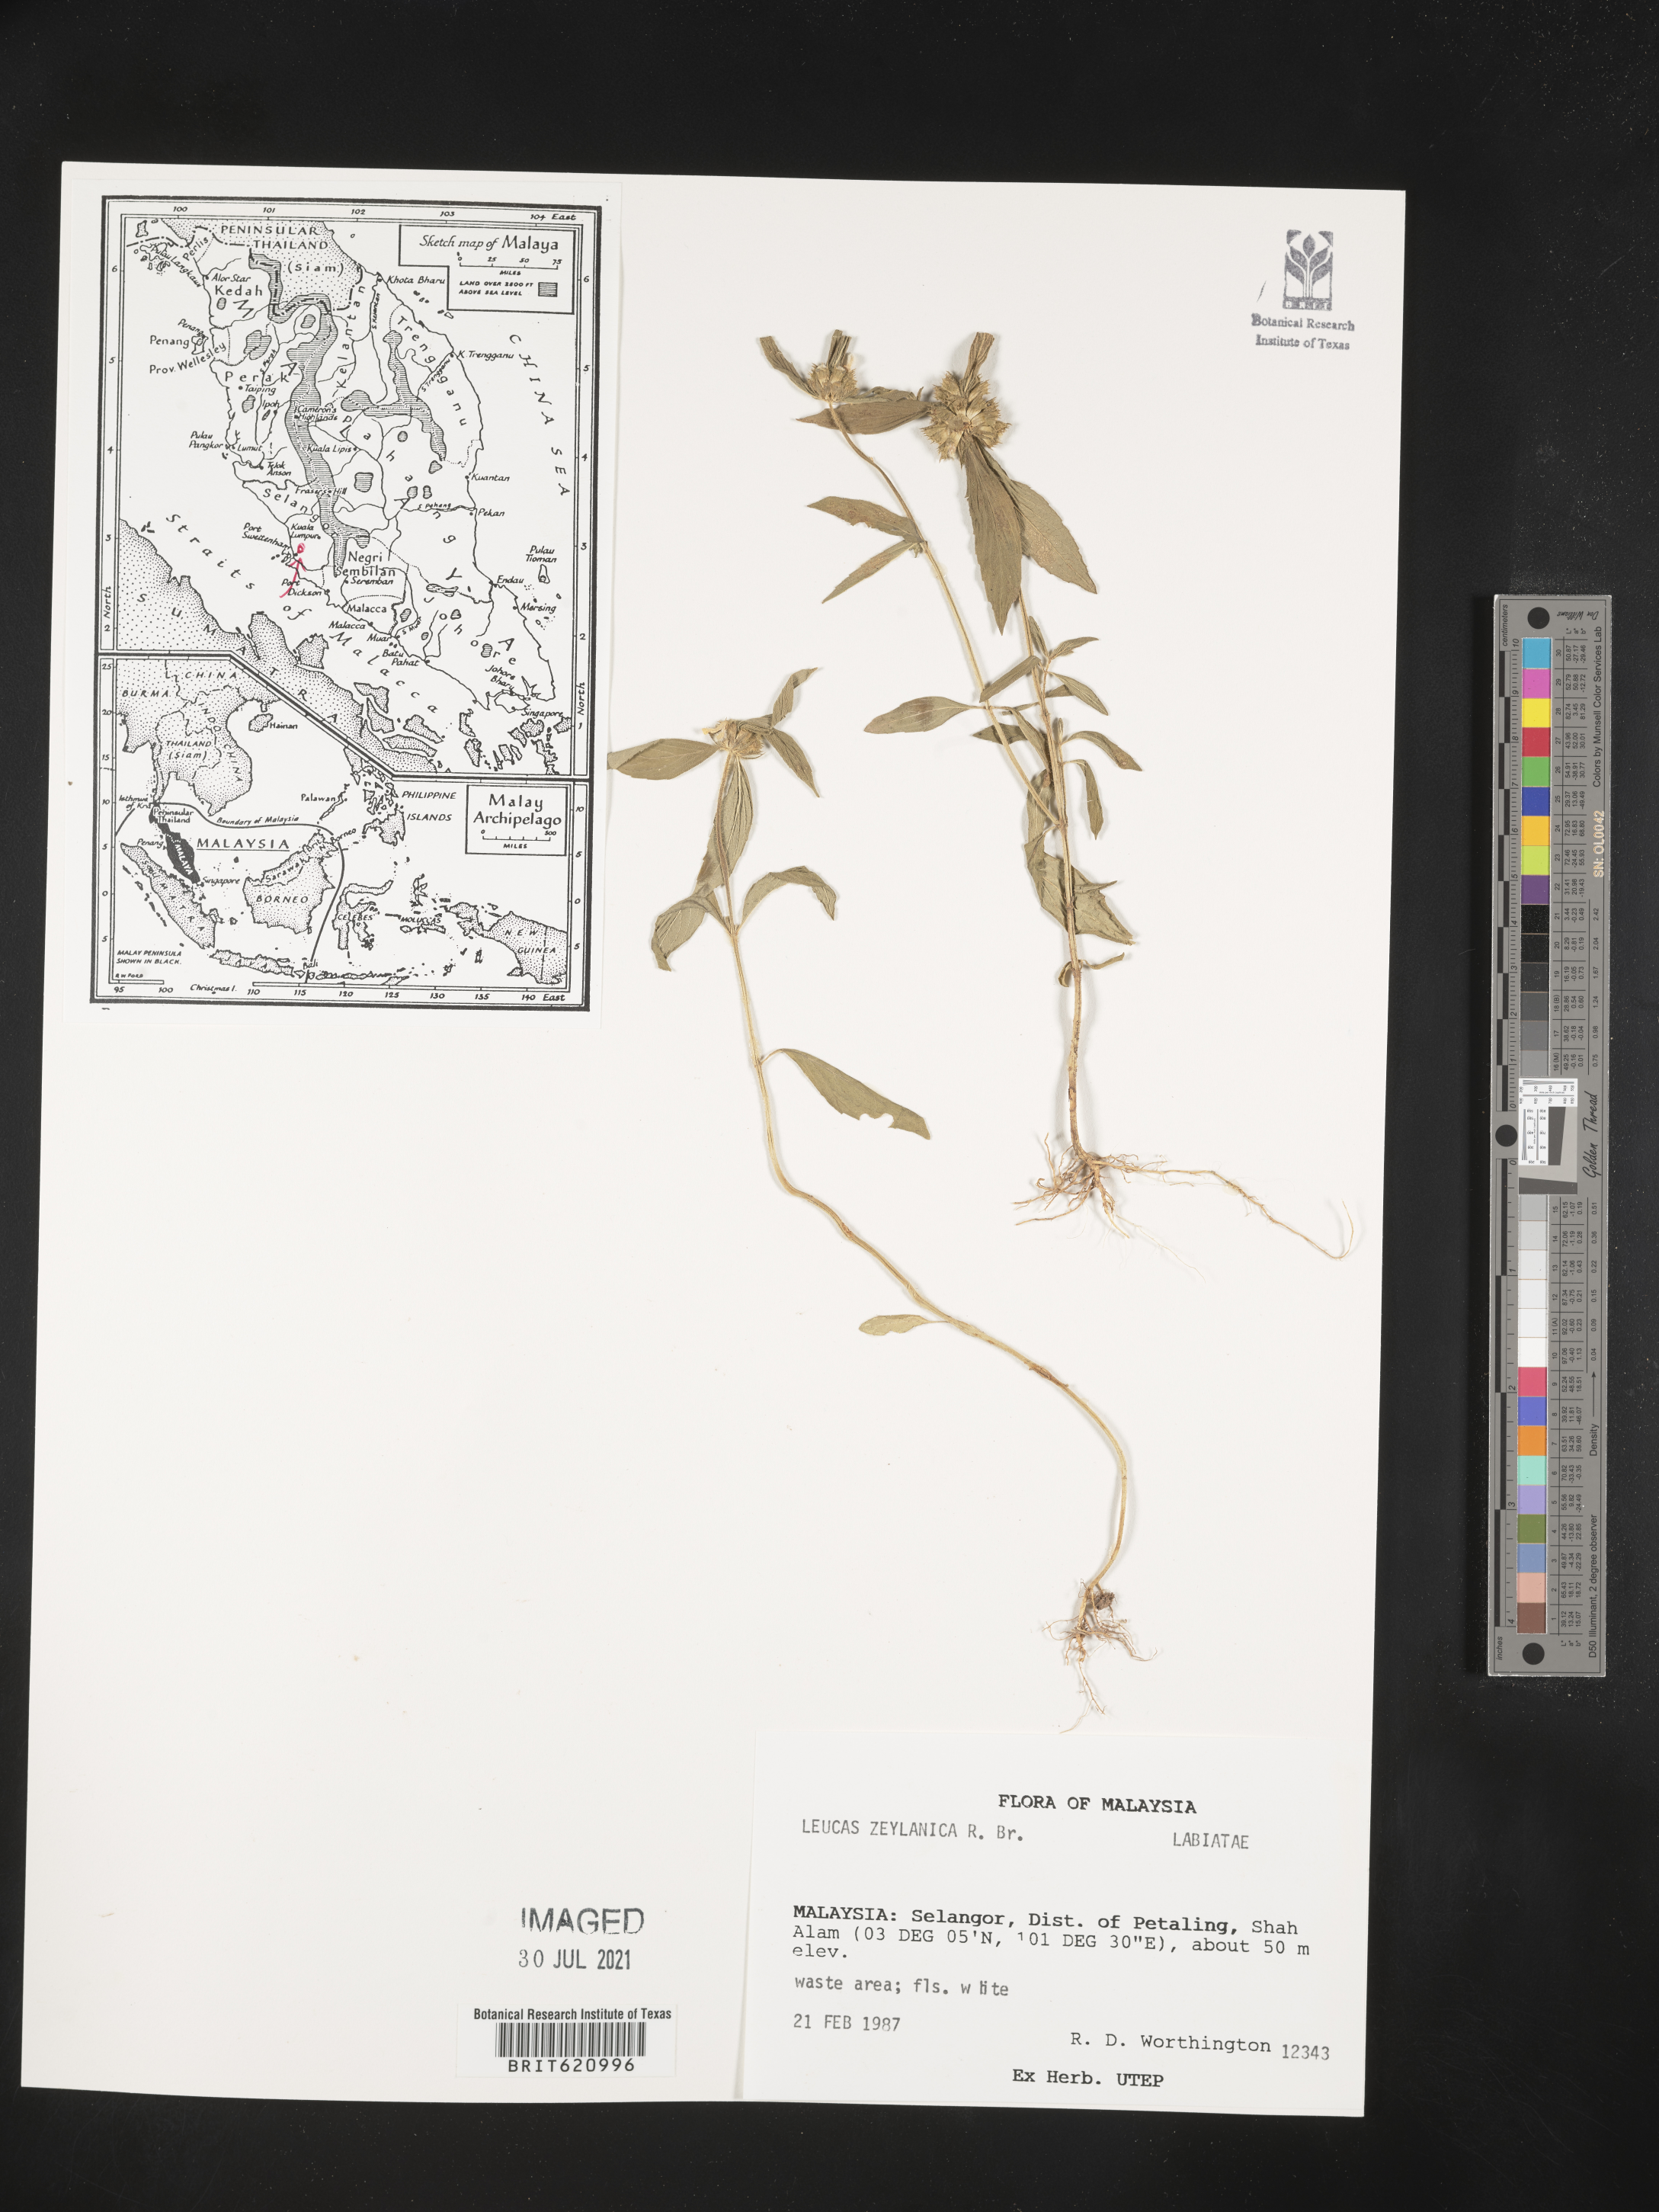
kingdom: Plantae
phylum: Tracheophyta
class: Magnoliopsida
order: Lamiales
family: Lamiaceae
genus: Leucas
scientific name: Leucas zeylanica
